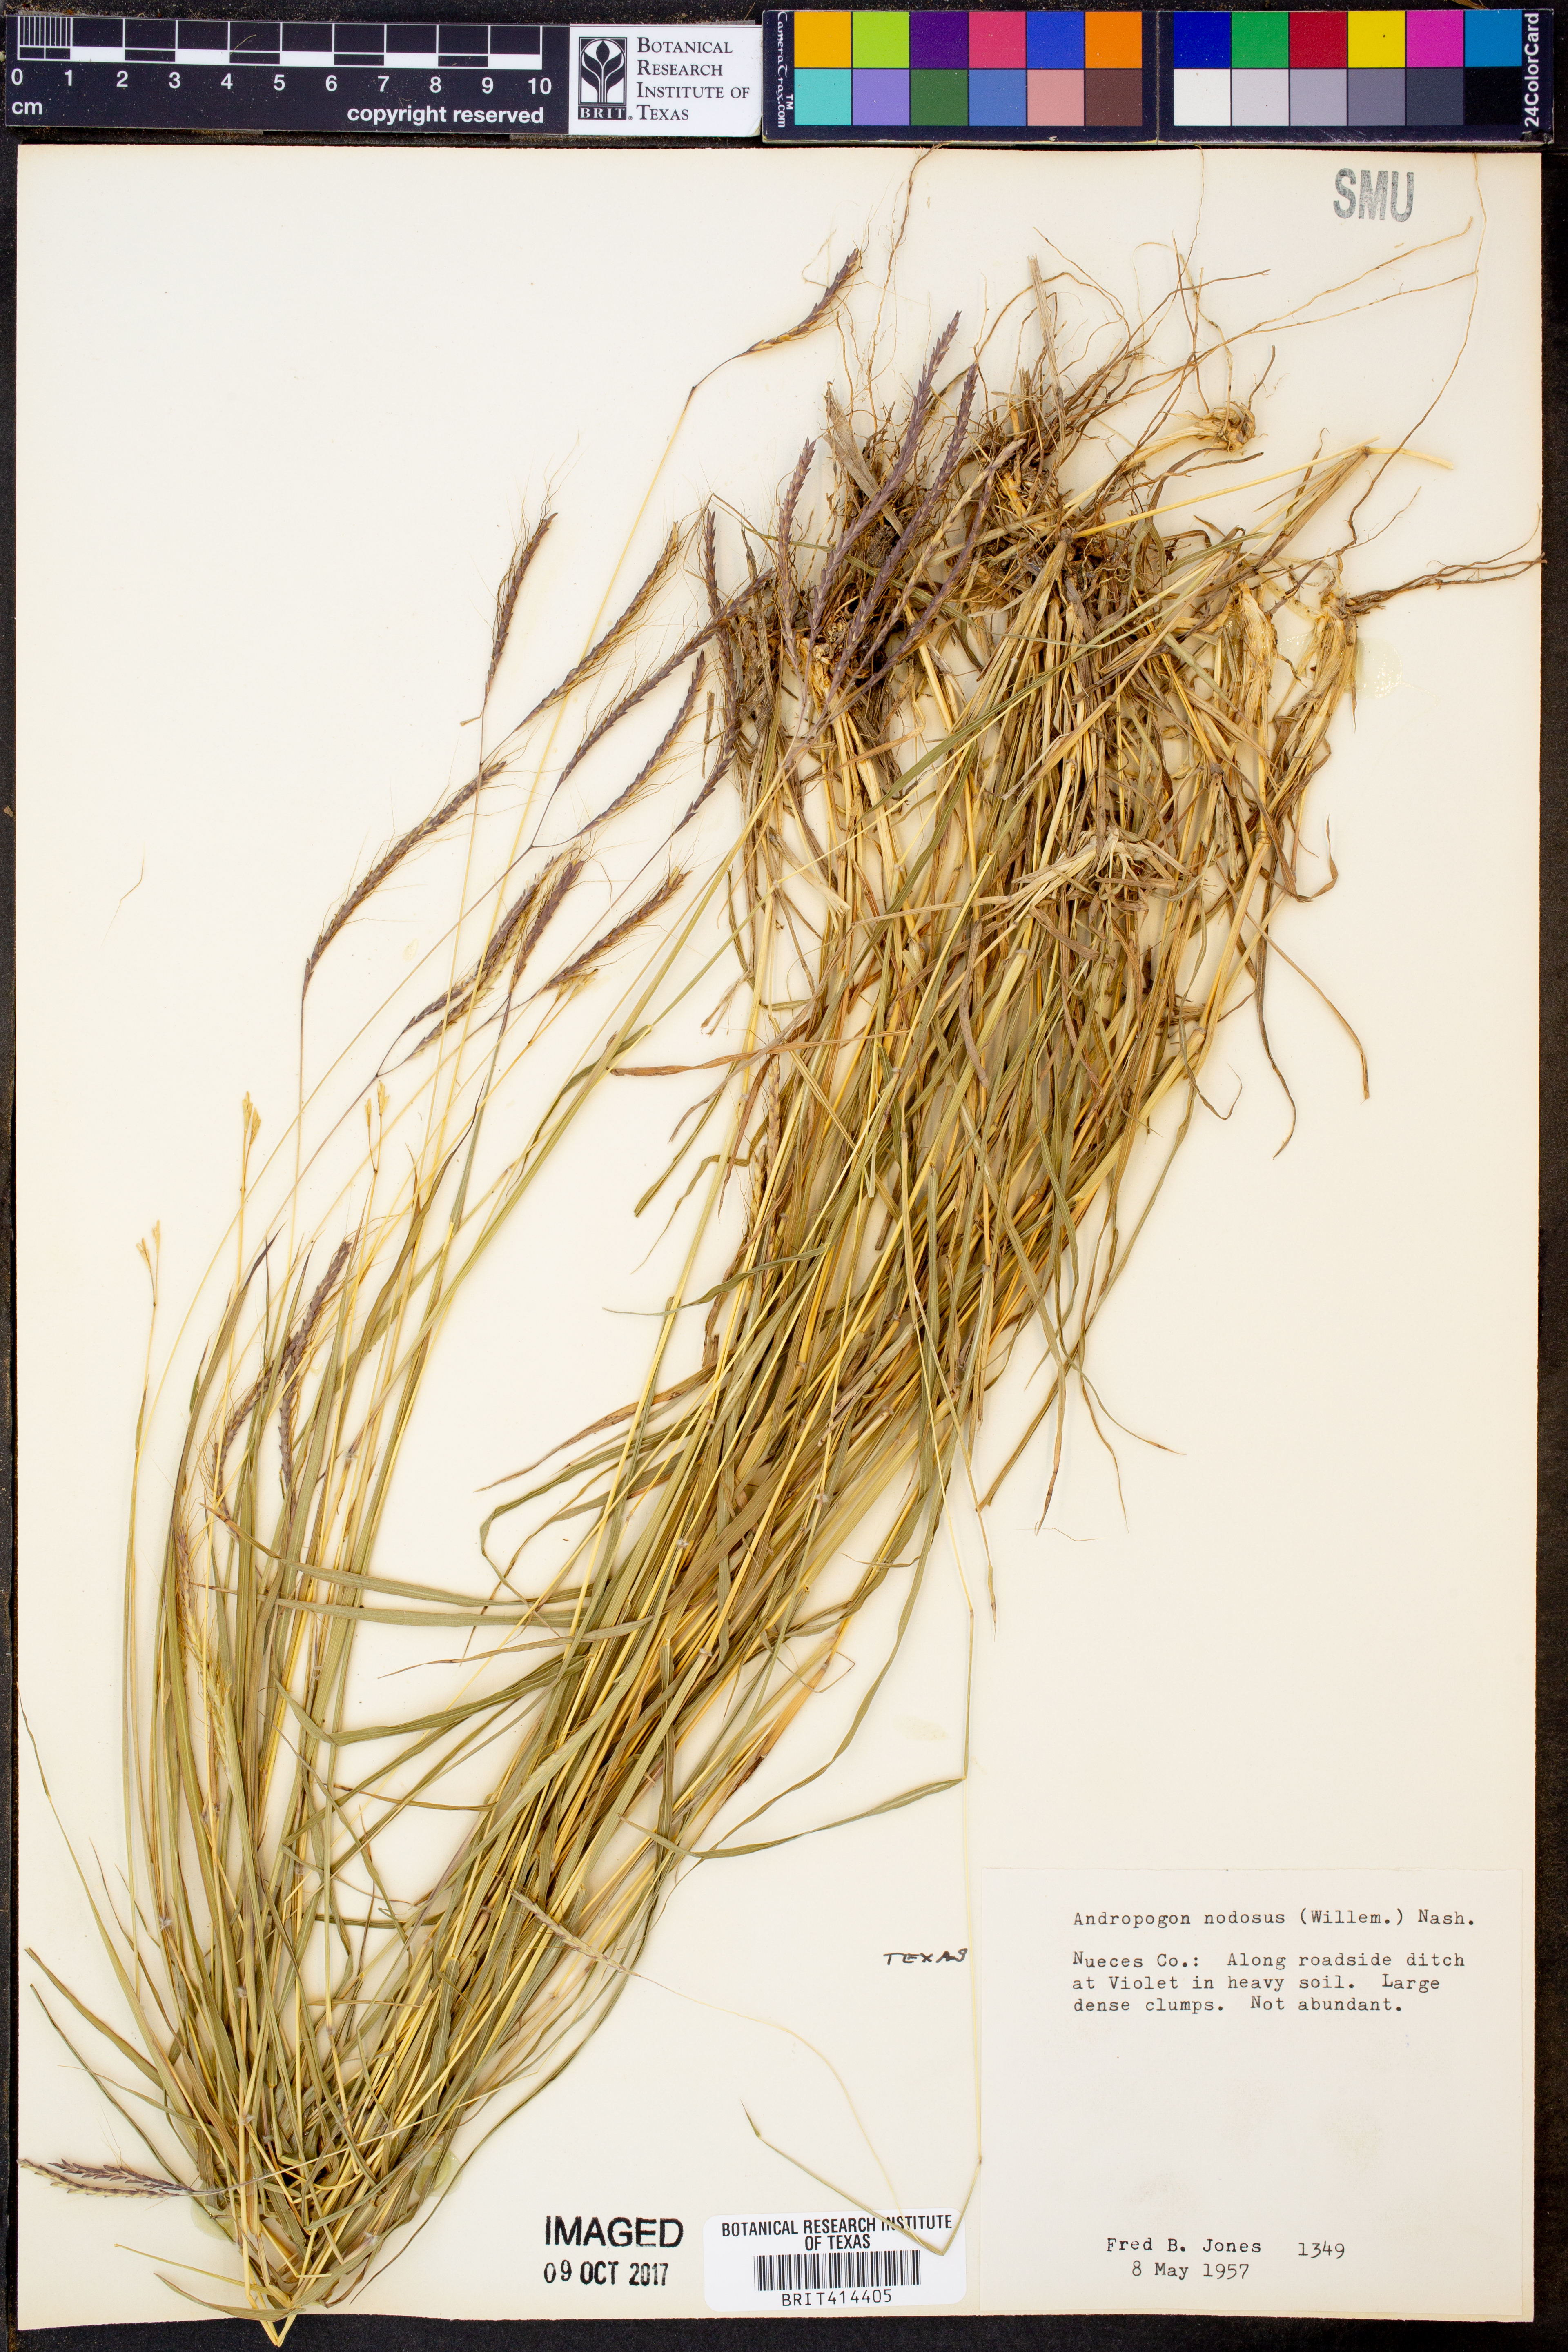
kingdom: Plantae
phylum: Tracheophyta
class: Liliopsida
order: Poales
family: Poaceae
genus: Dichanthium
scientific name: Dichanthium annulatum
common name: Kleberg's bluestem
